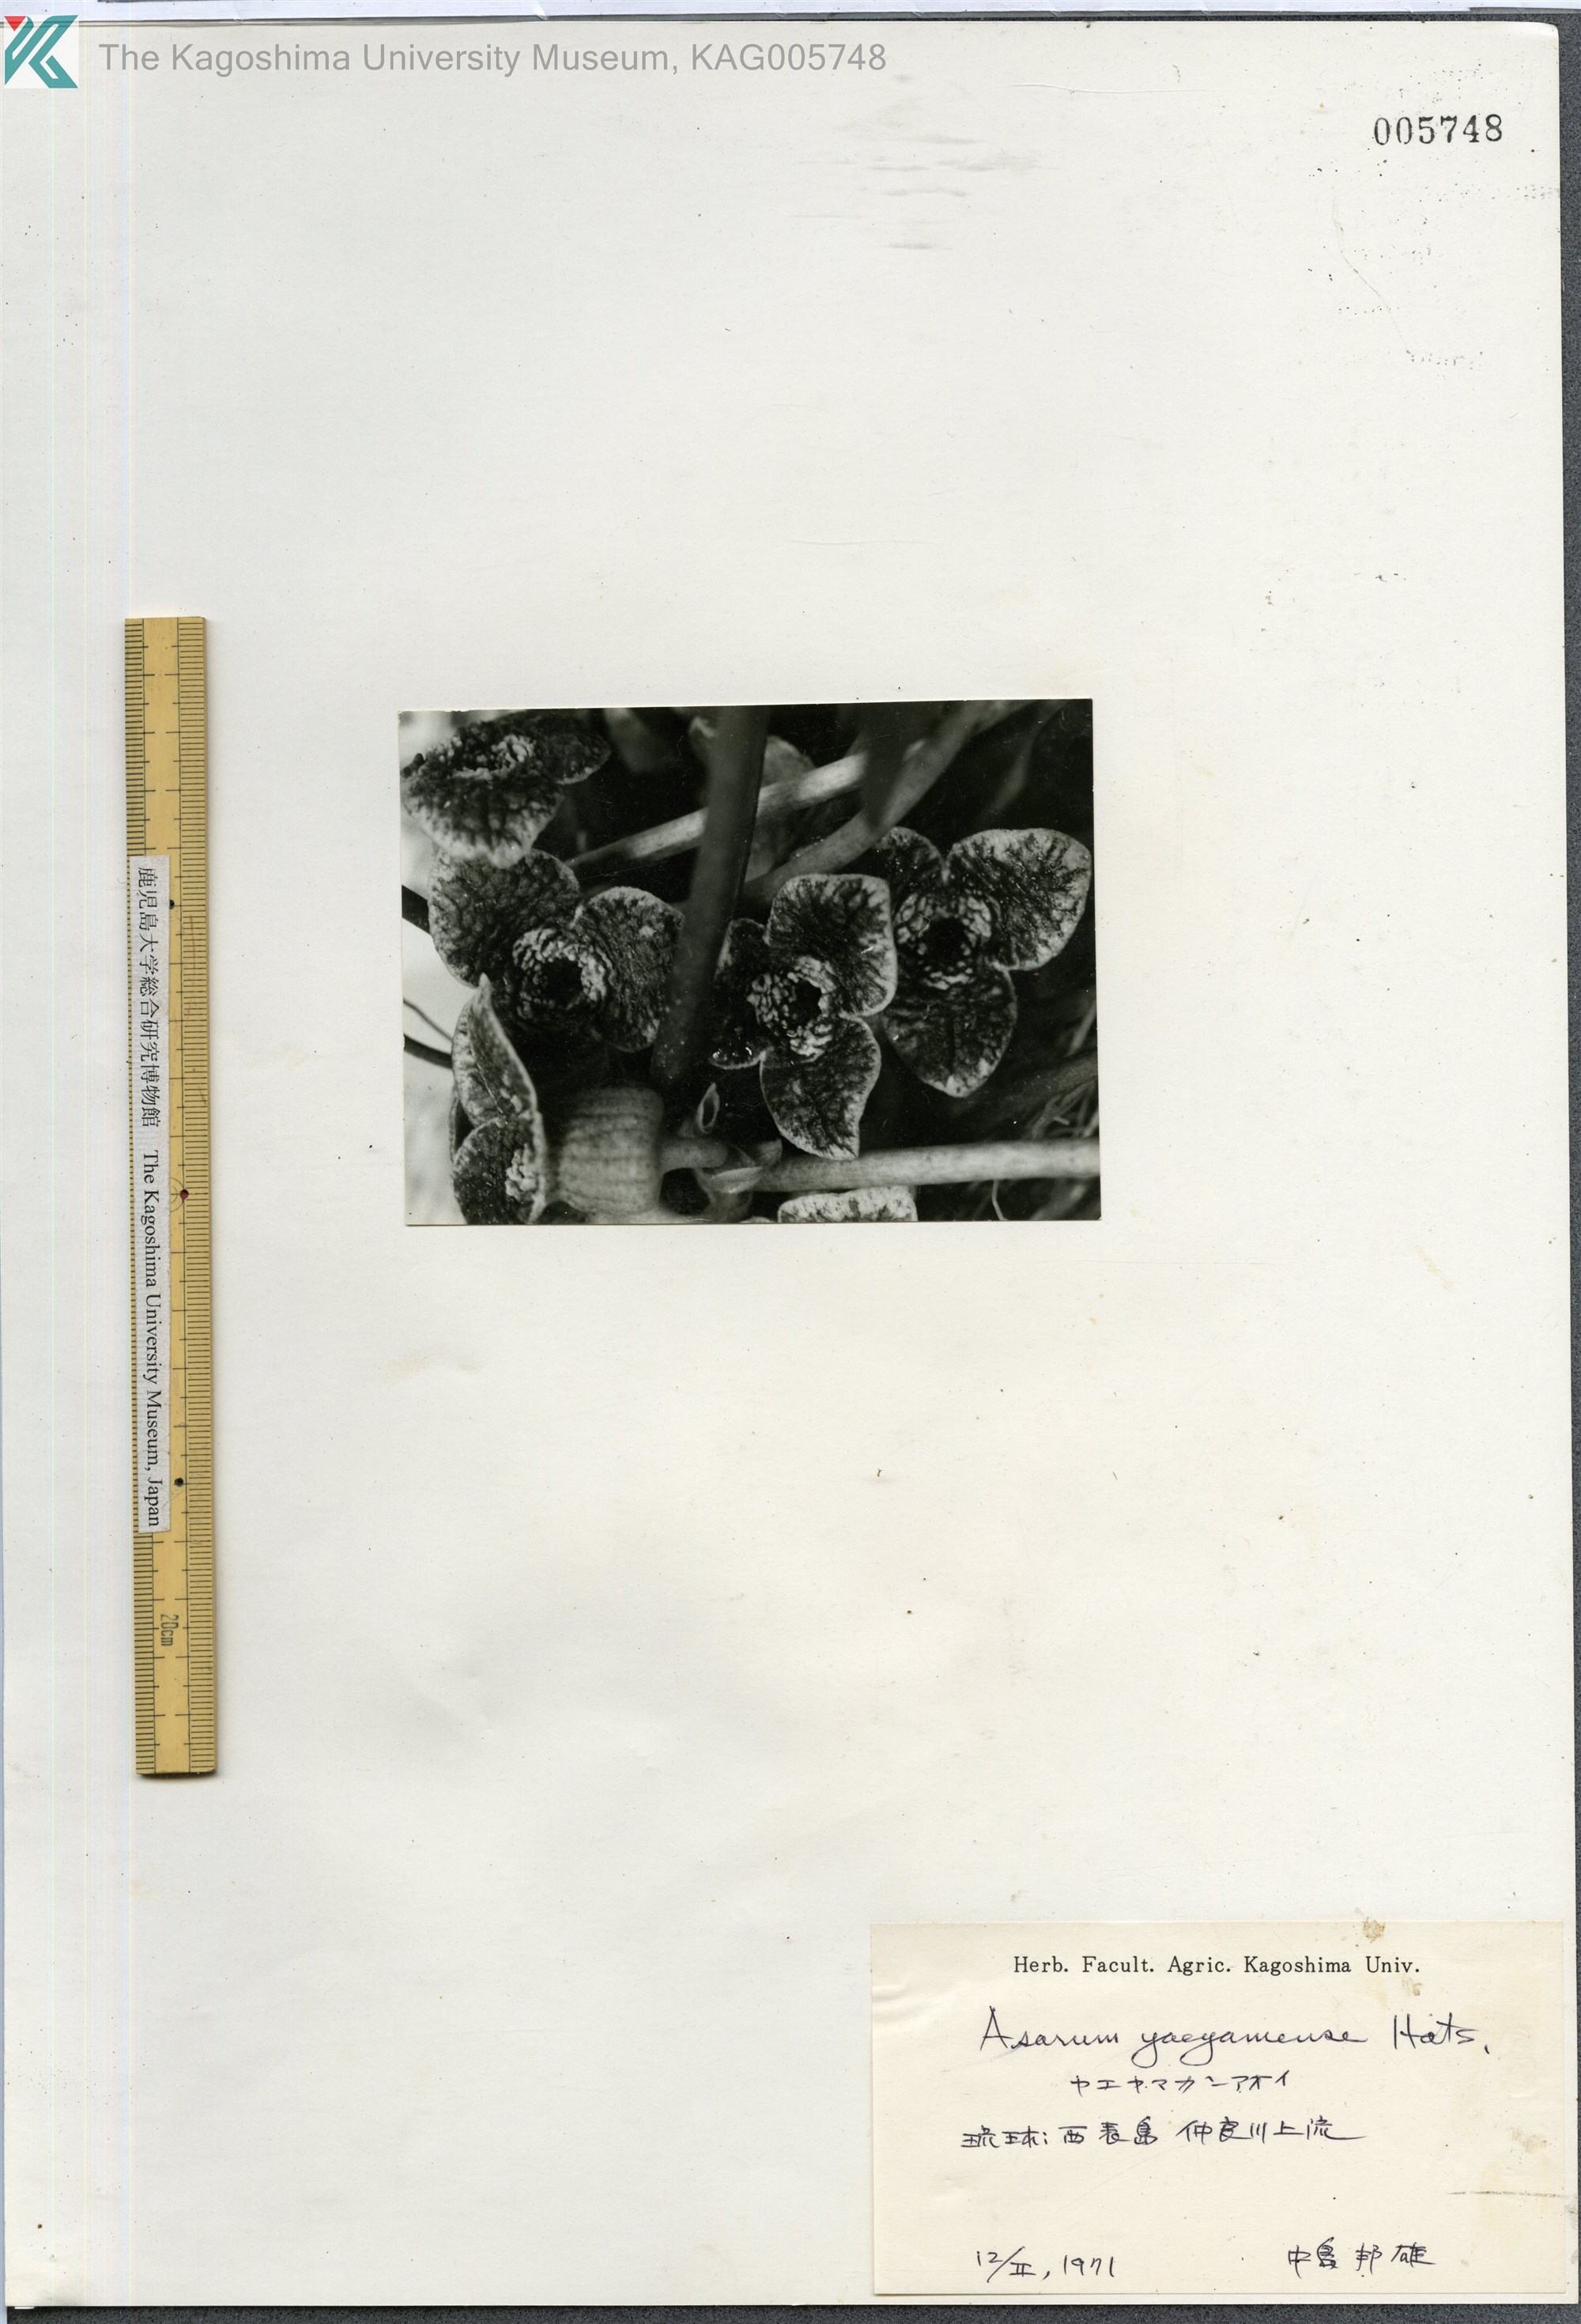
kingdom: Plantae
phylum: Tracheophyta
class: Magnoliopsida
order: Piperales
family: Aristolochiaceae
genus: Asarum
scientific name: Asarum yaeyamense
